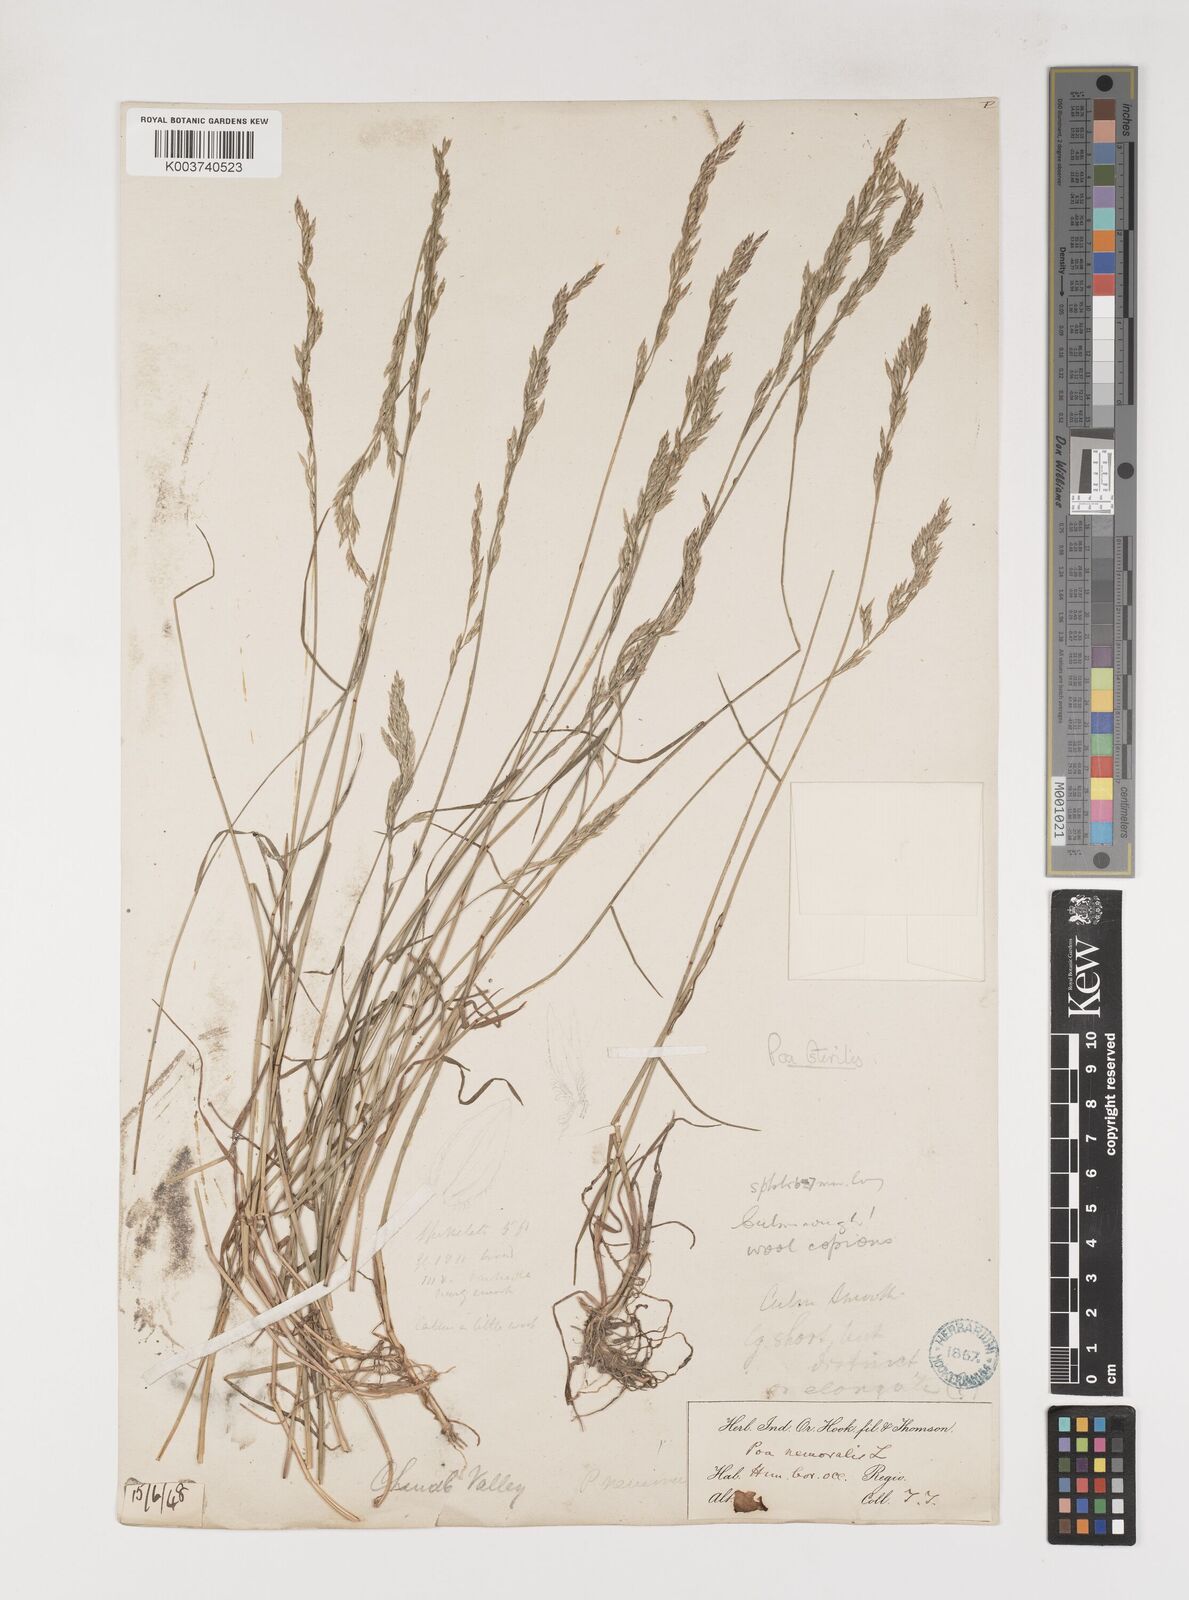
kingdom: Plantae
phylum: Tracheophyta
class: Liliopsida
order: Poales
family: Poaceae
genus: Poa
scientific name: Poa sterilis
